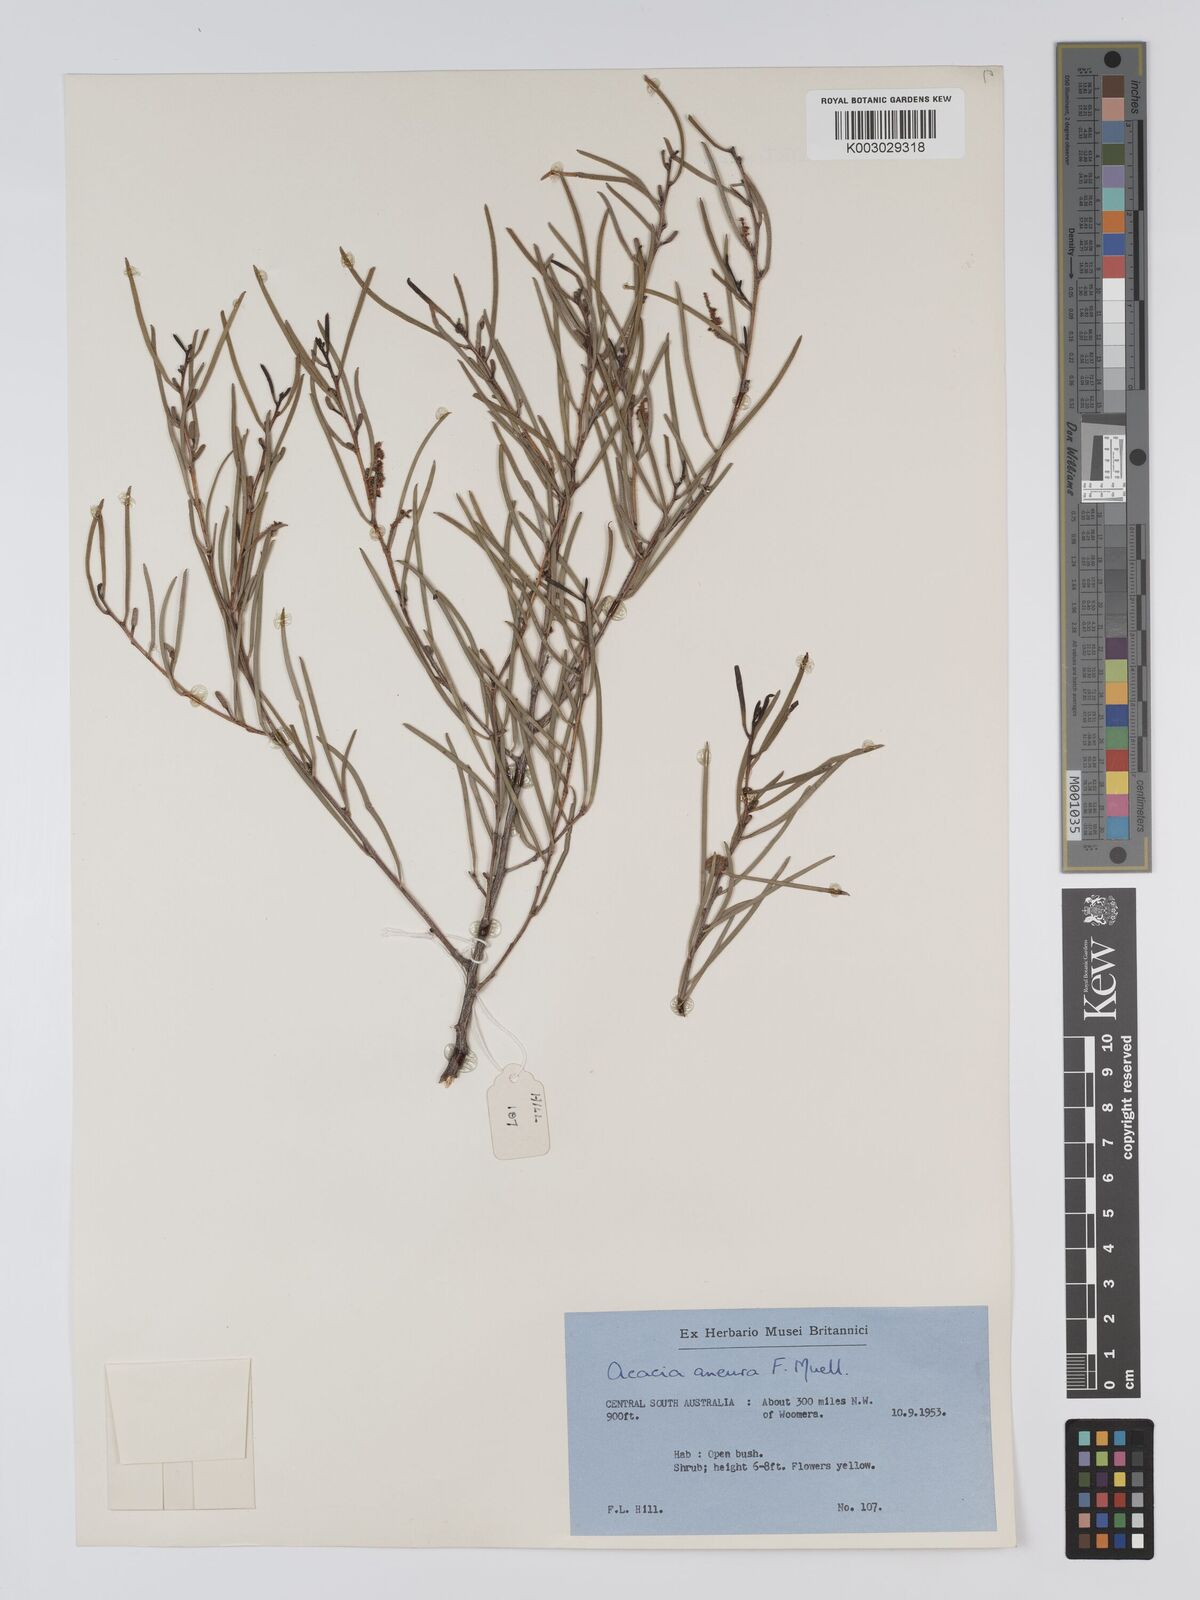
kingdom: Plantae
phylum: Tracheophyta
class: Magnoliopsida
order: Fabales
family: Fabaceae
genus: Acacia
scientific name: Acacia aneura
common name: Mulga
